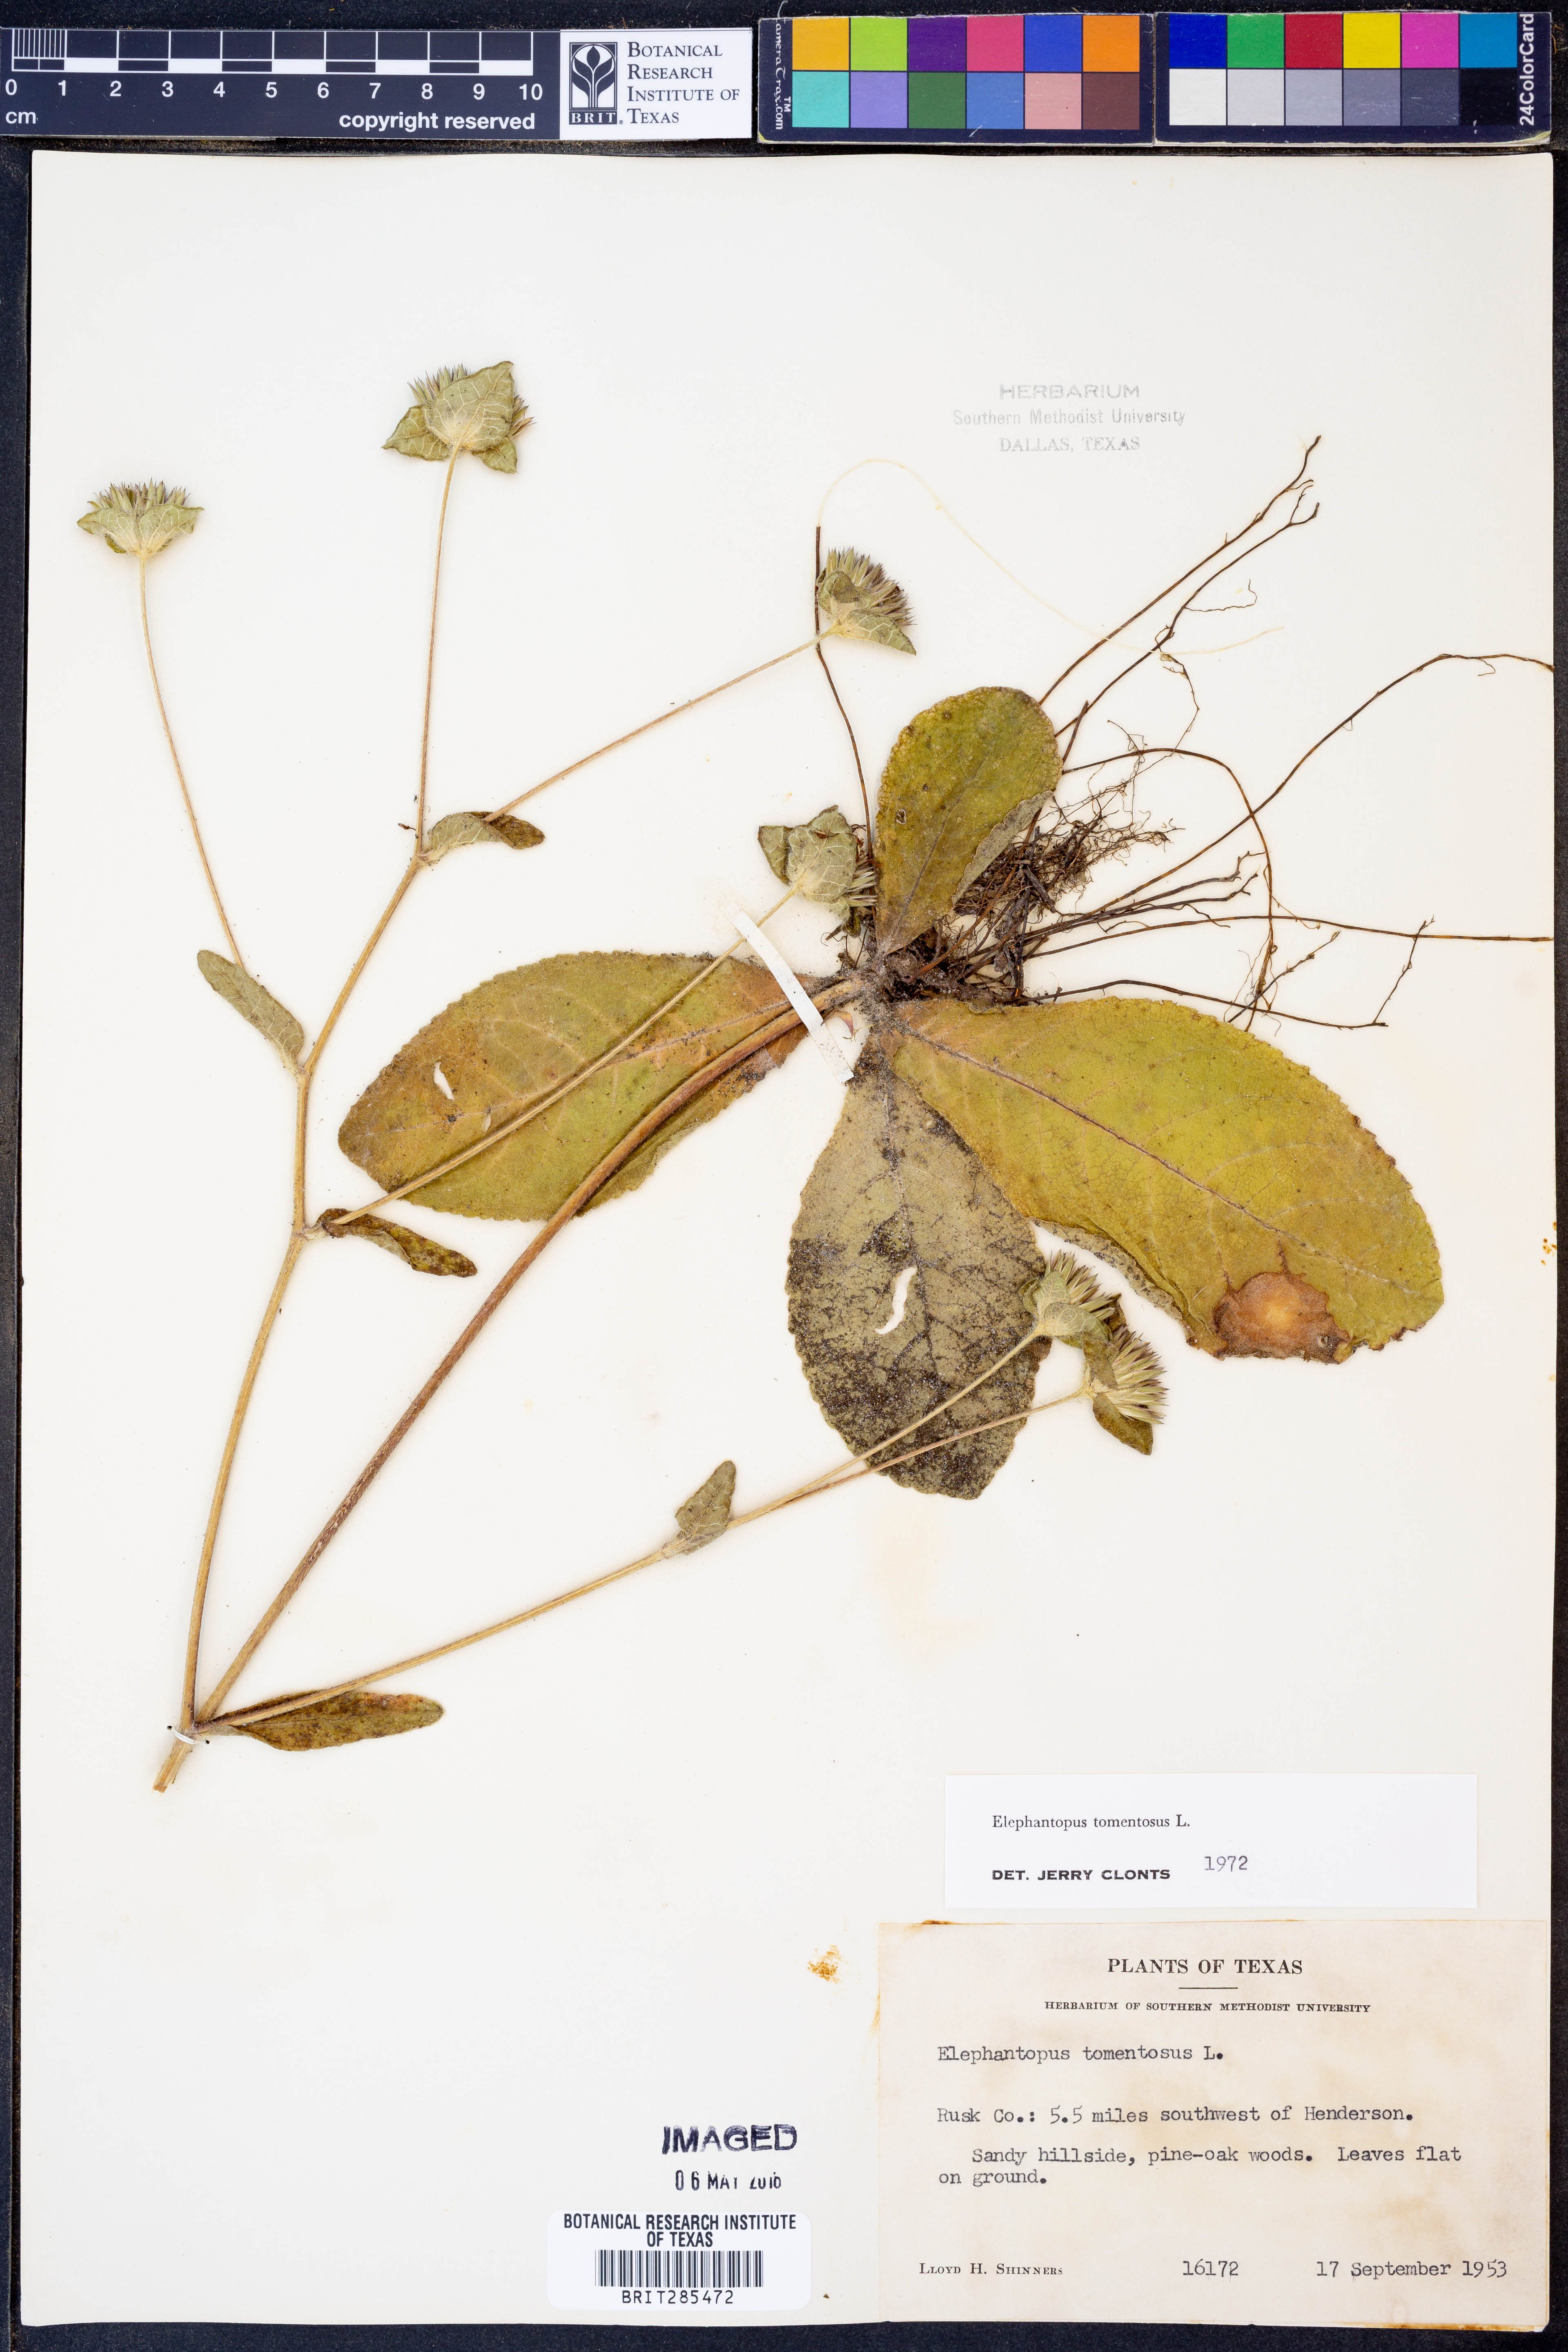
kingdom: Plantae
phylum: Tracheophyta
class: Magnoliopsida
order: Asterales
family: Asteraceae
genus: Elephantopus
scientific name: Elephantopus tomentosus
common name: Tobacco-weed
